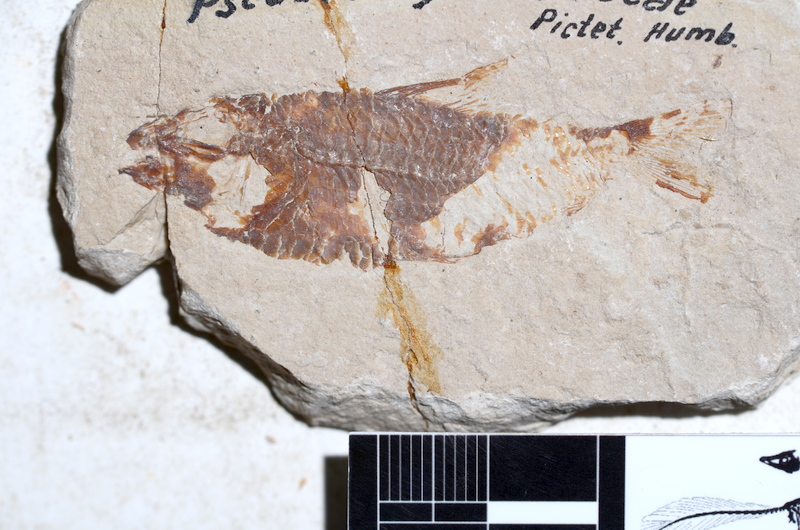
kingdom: Animalia
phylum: Chordata
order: Aulopiformes
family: Aulopidae
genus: Nematonotus
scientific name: Nematonotus Pseudoberyx longispina
